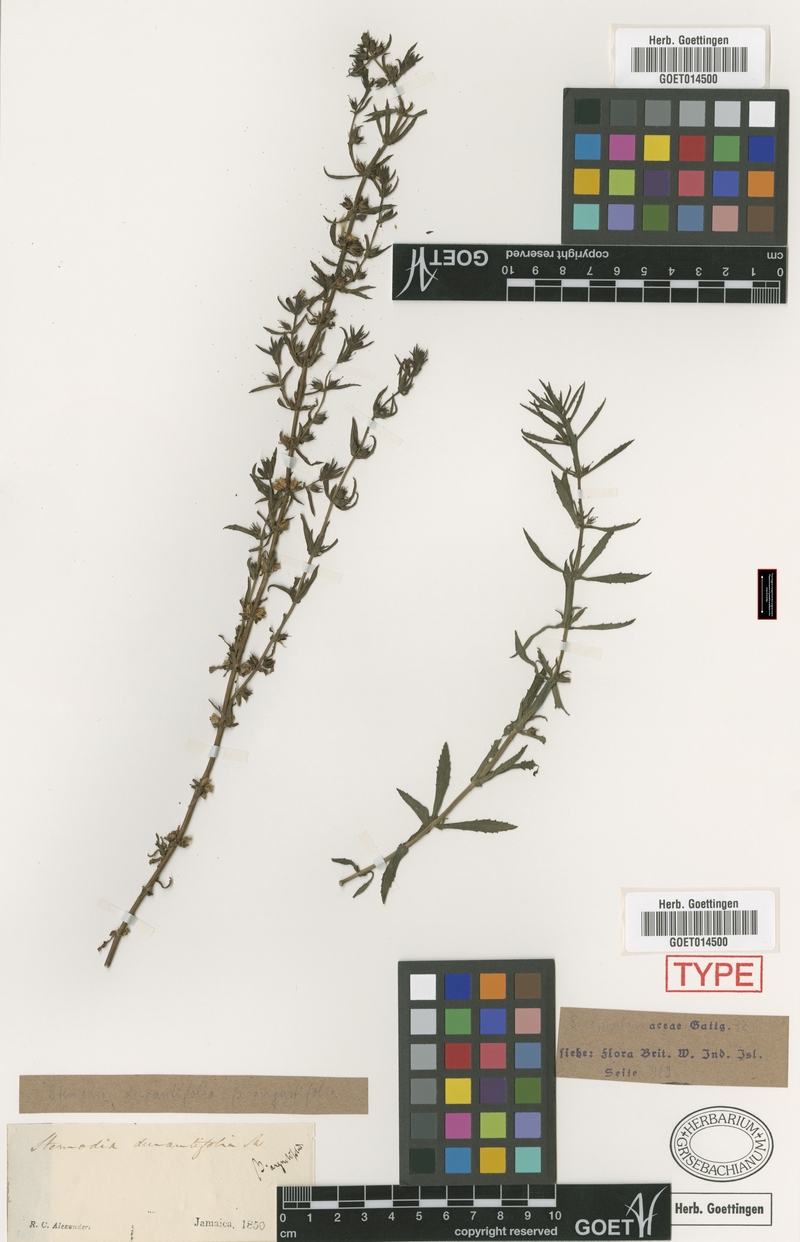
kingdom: Plantae
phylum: Tracheophyta
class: Magnoliopsida
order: Lamiales
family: Plantaginaceae
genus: Stemodia
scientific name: Stemodia durantifolia
